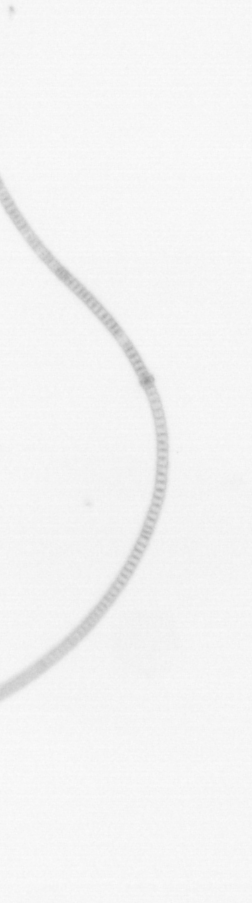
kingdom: Chromista
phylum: Ochrophyta
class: Bacillariophyceae
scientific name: Bacillariophyceae
